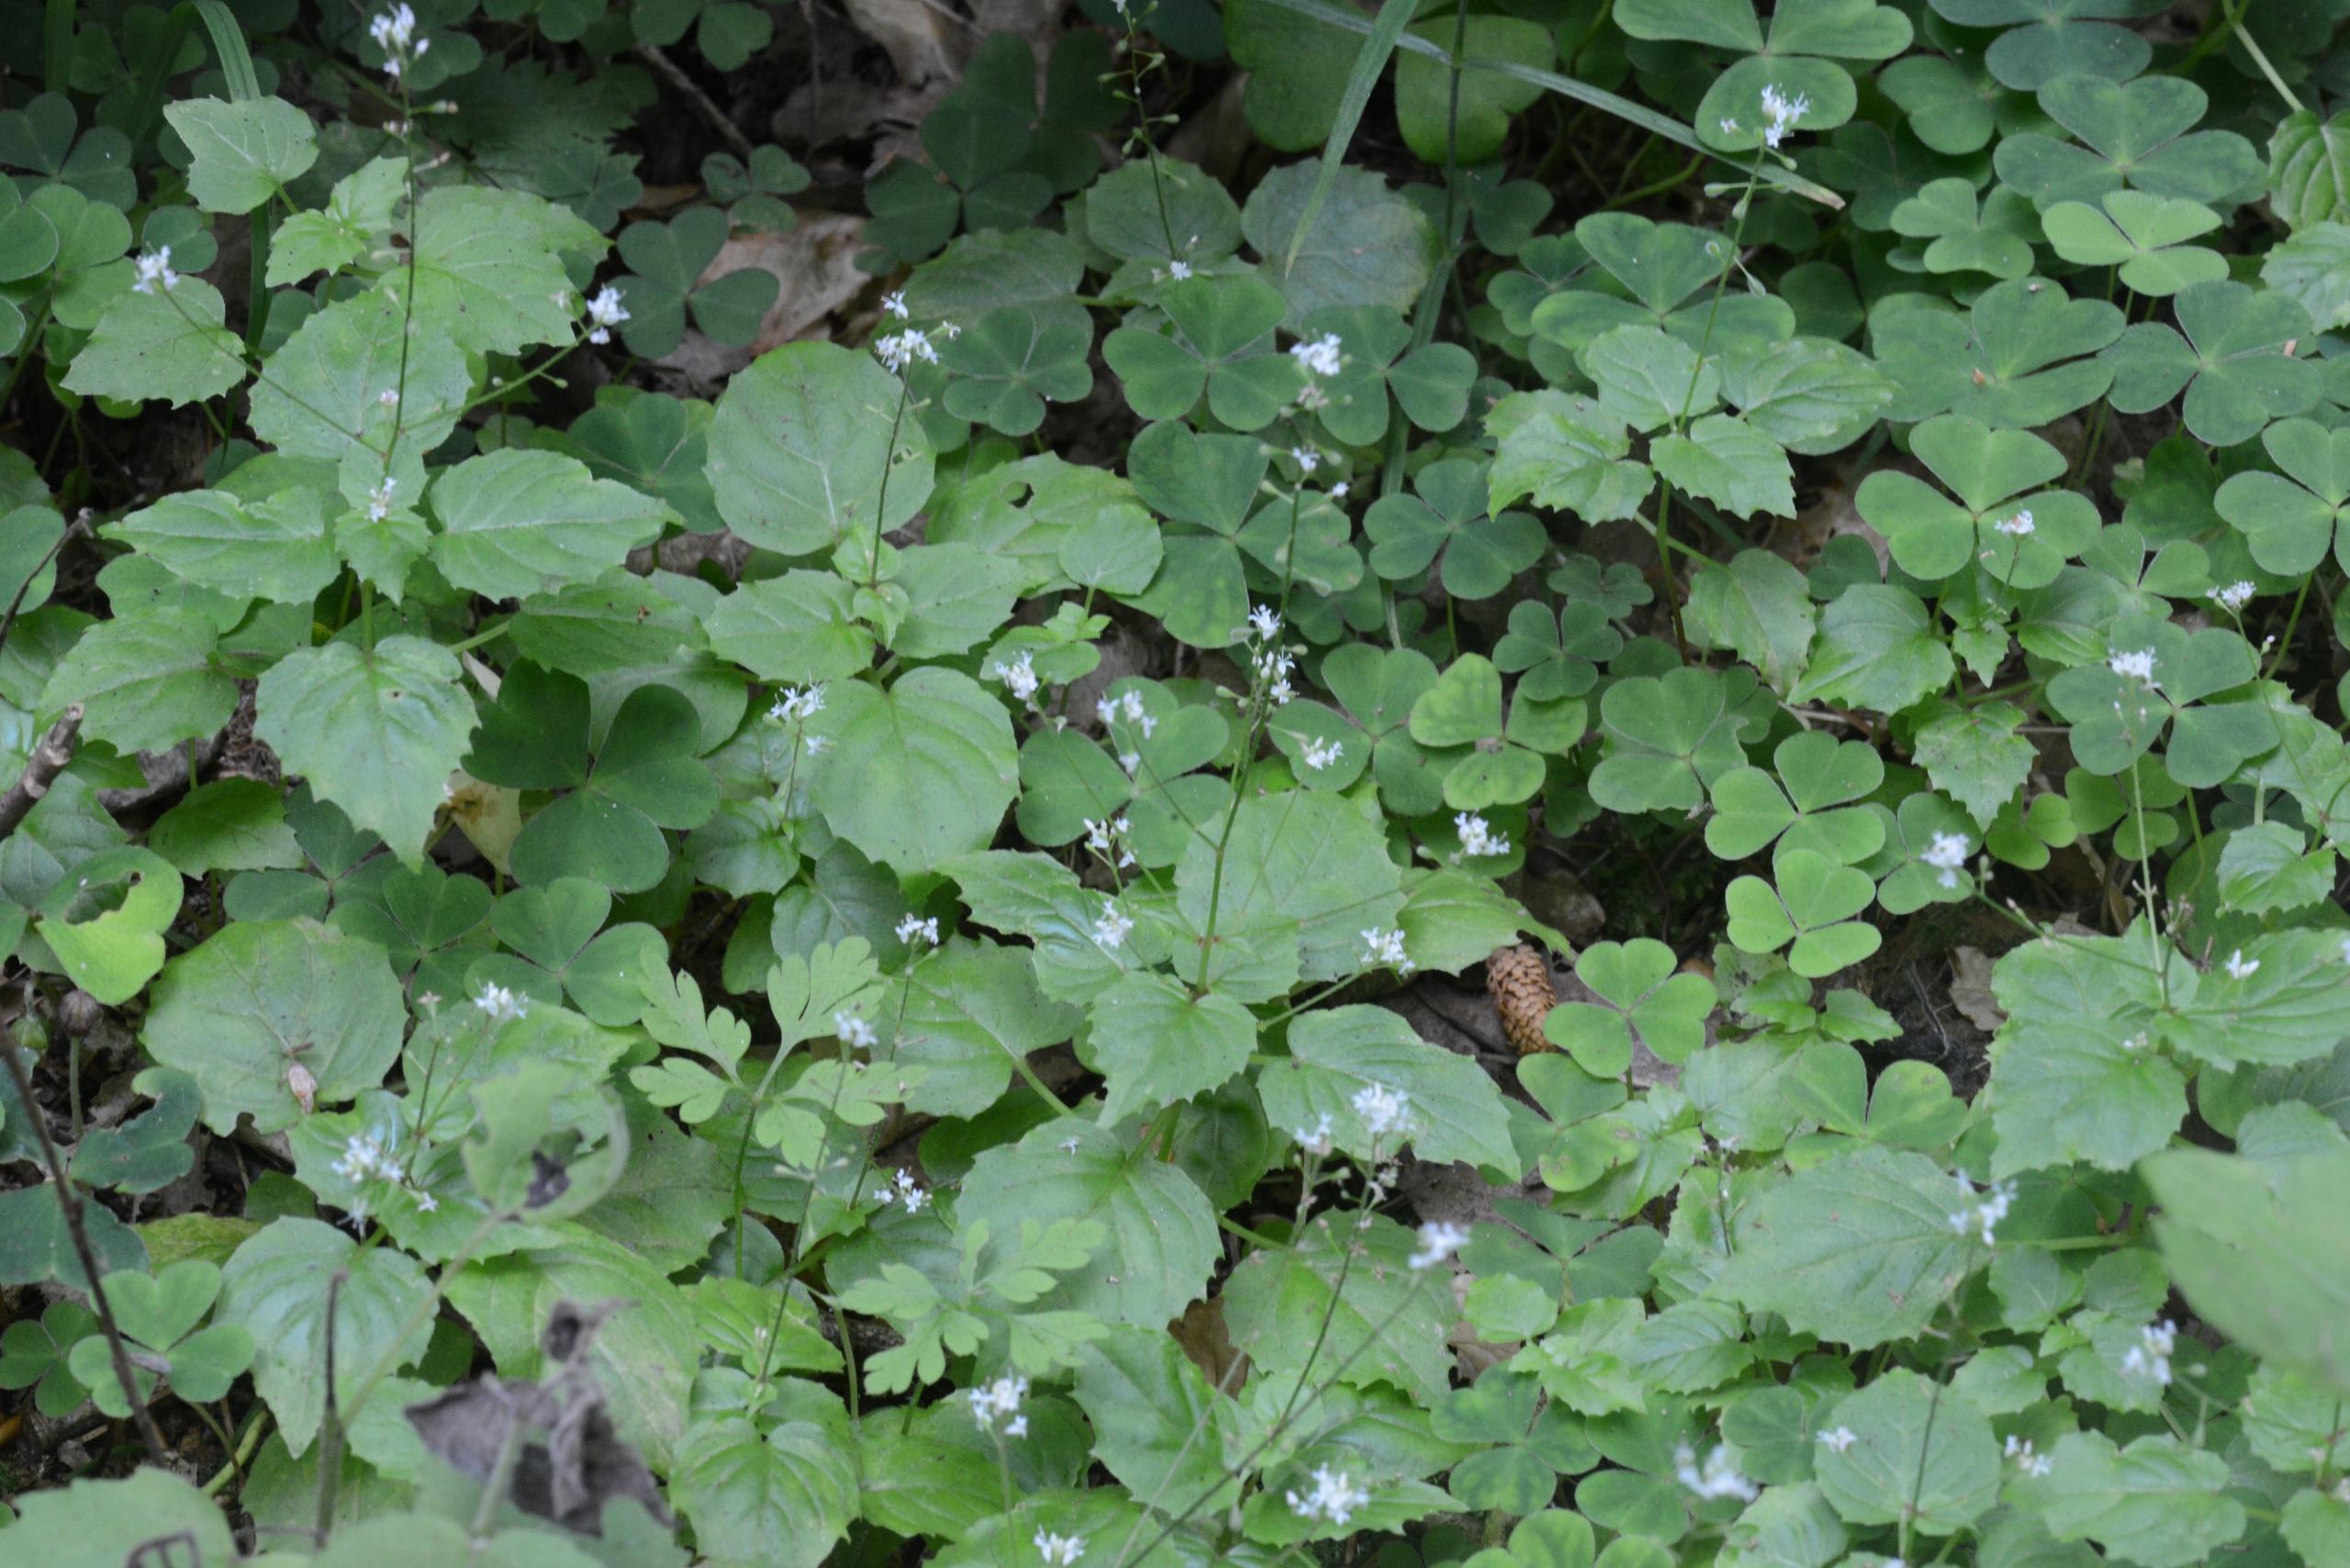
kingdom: Plantae
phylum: Tracheophyta
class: Magnoliopsida
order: Myrtales
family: Onagraceae
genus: Circaea
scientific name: Circaea alpina
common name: Liden steffensurt
